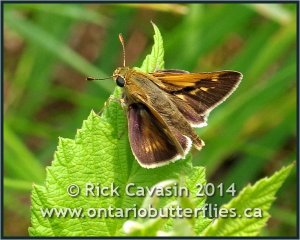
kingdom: Animalia
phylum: Arthropoda
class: Insecta
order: Lepidoptera
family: Hesperiidae
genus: Polites
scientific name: Polites
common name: Crossline Skipper
